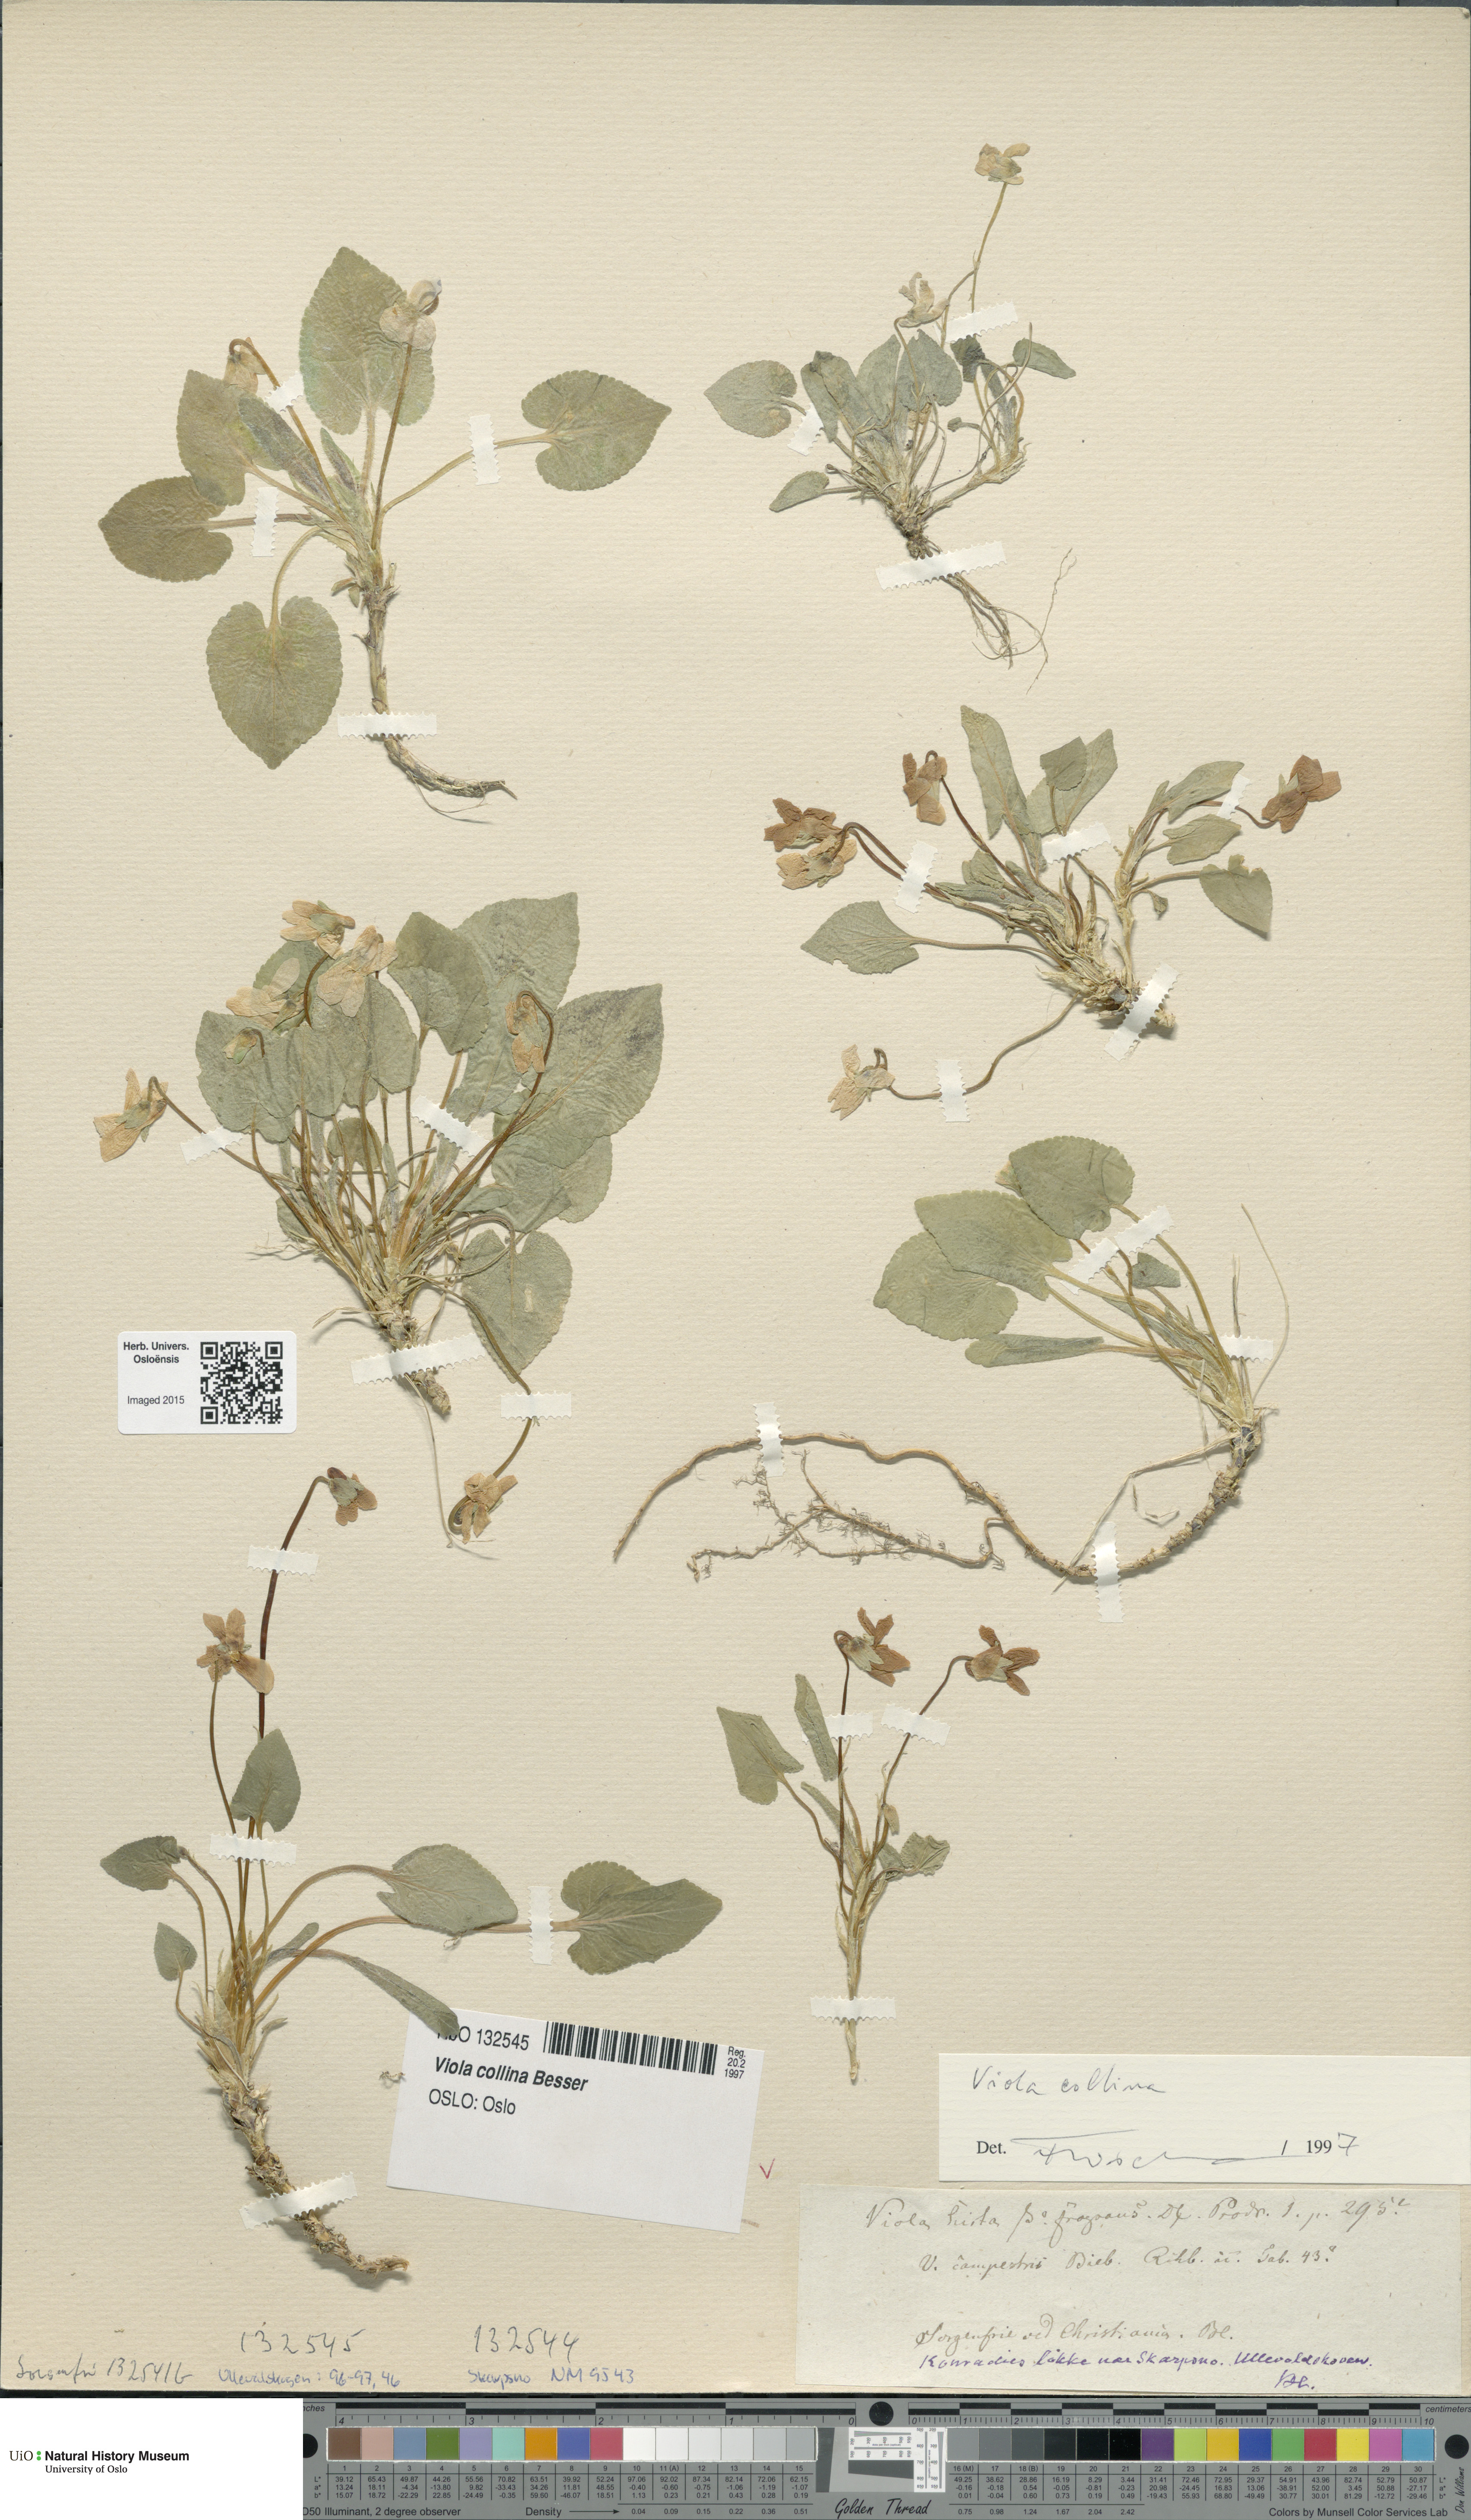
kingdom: Plantae
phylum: Tracheophyta
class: Magnoliopsida
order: Malpighiales
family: Violaceae
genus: Viola
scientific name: Viola collina
